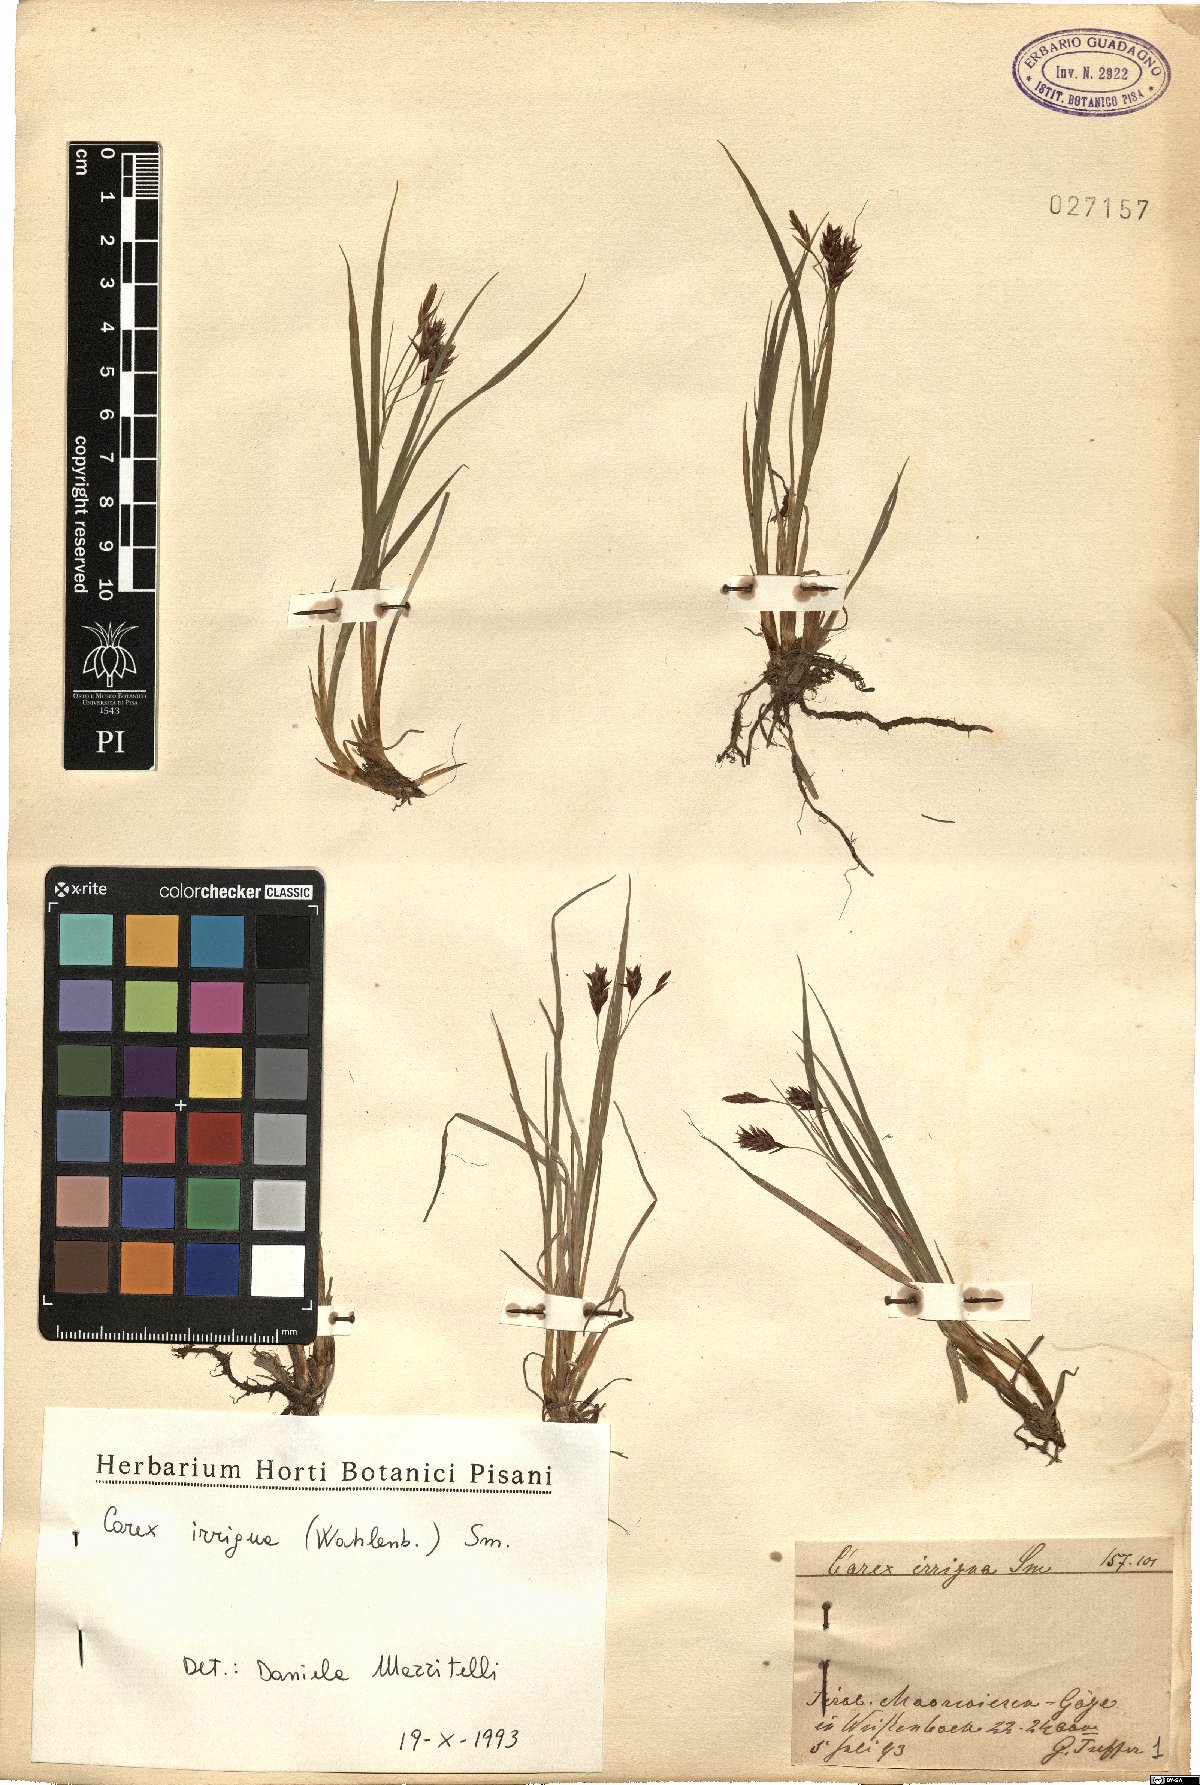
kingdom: Plantae
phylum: Tracheophyta
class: Liliopsida
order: Poales
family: Cyperaceae
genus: Carex
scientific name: Carex magellanica
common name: Bog sedge
